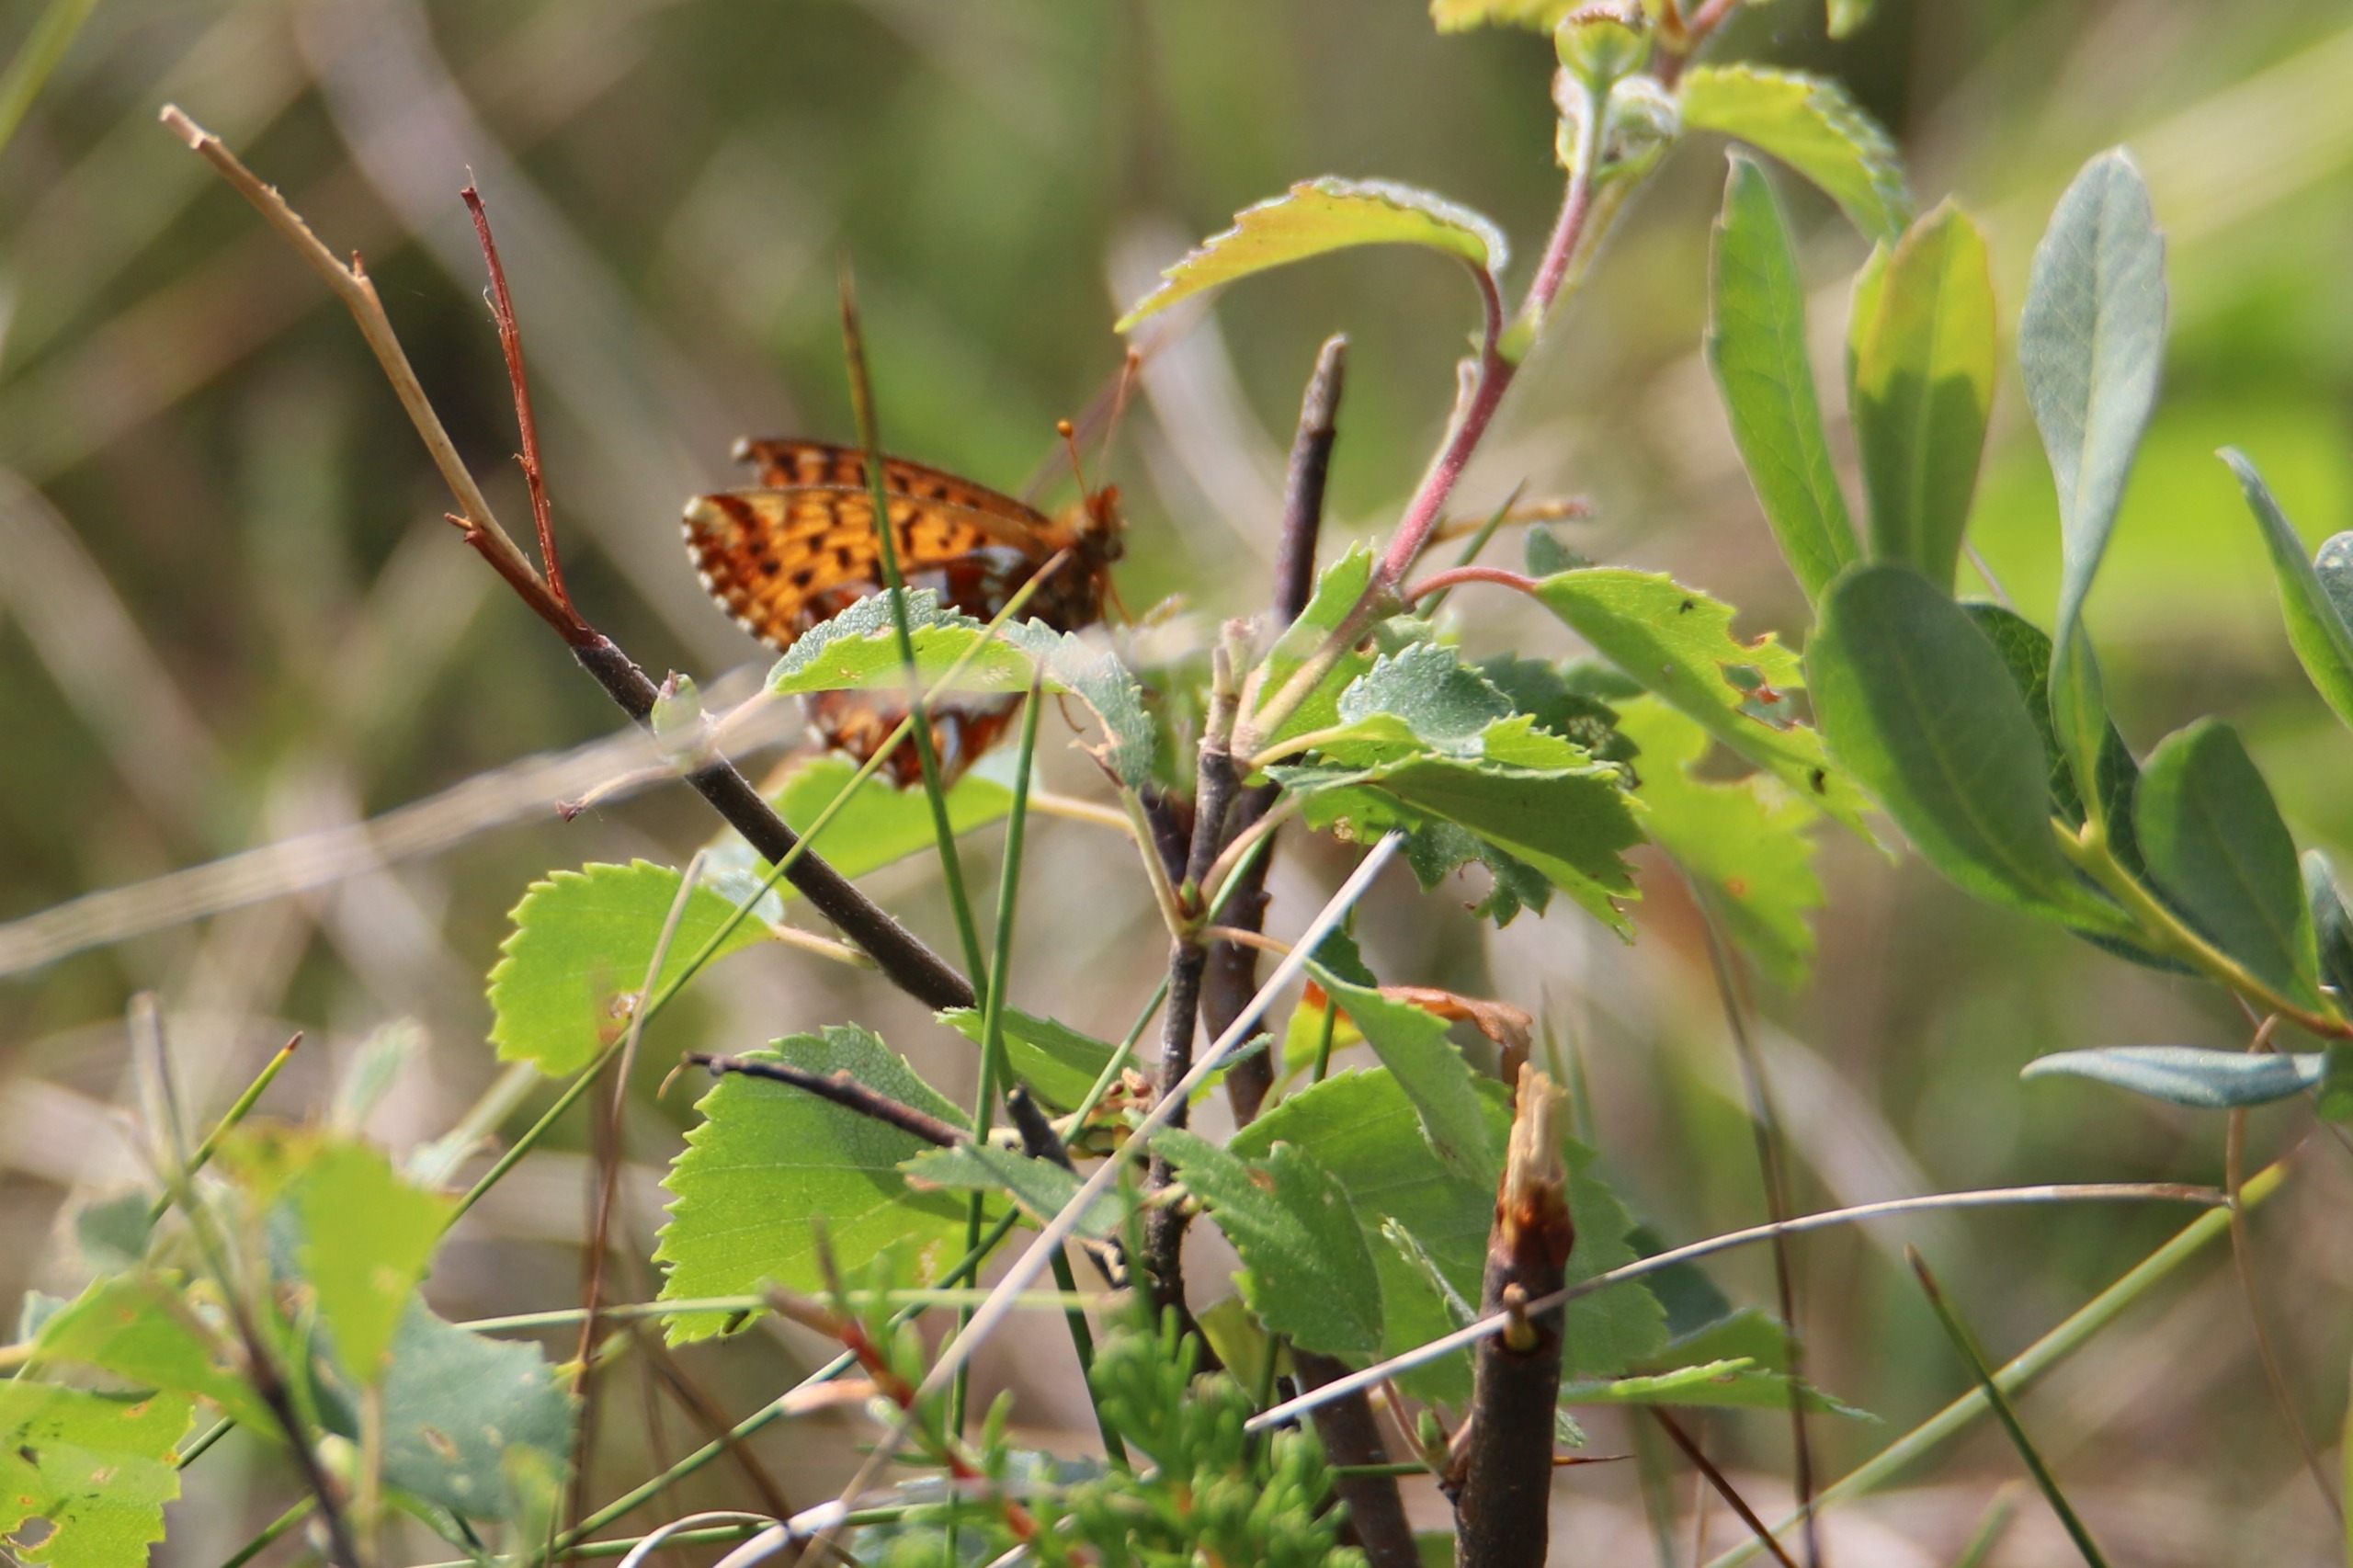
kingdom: Animalia
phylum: Arthropoda
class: Insecta
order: Lepidoptera
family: Nymphalidae
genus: Boloria
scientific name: Boloria aquilonaris
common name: Moseperlemorsommerfugl
